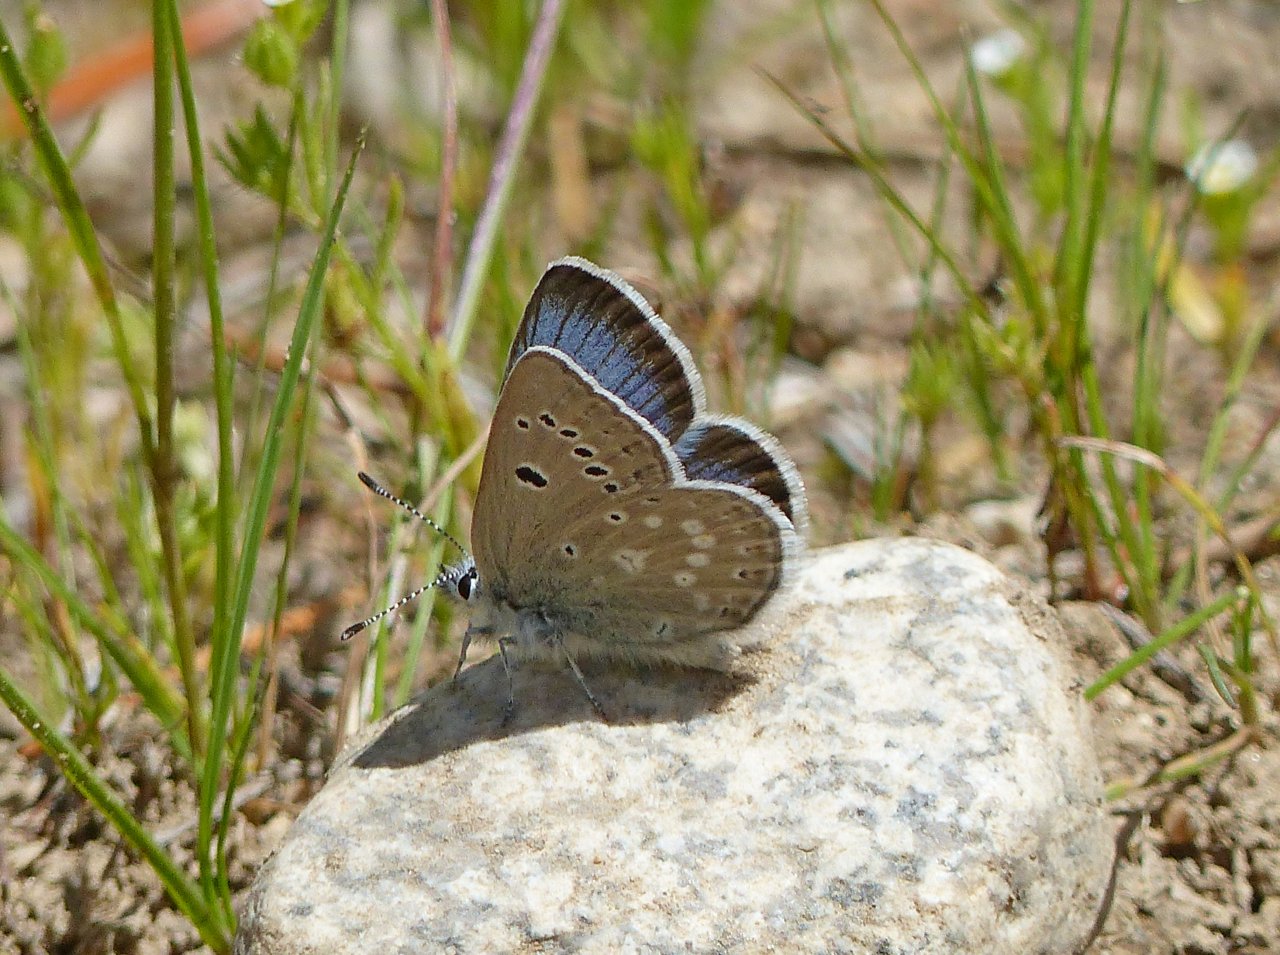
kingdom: Animalia
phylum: Arthropoda
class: Insecta
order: Lepidoptera
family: Lycaenidae
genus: Icaricia
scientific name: Icaricia icarioides
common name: Boisduval's Blue
